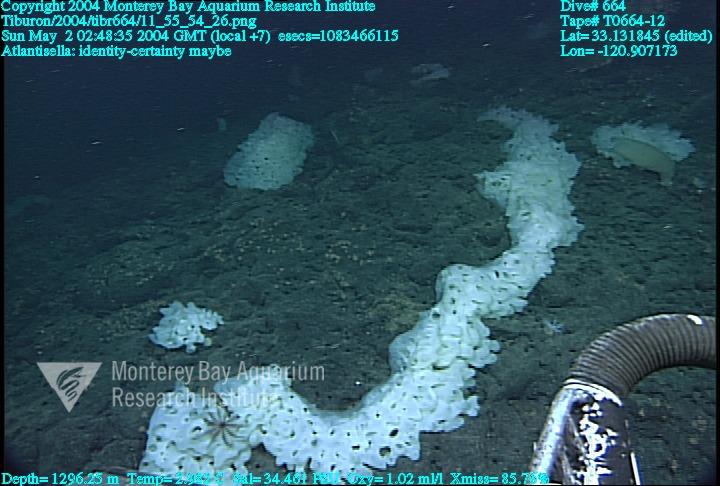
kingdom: Animalia
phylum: Porifera
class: Hexactinellida
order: Lyssacinosida
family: Euplectellidae
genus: Atlantisella
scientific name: Atlantisella
